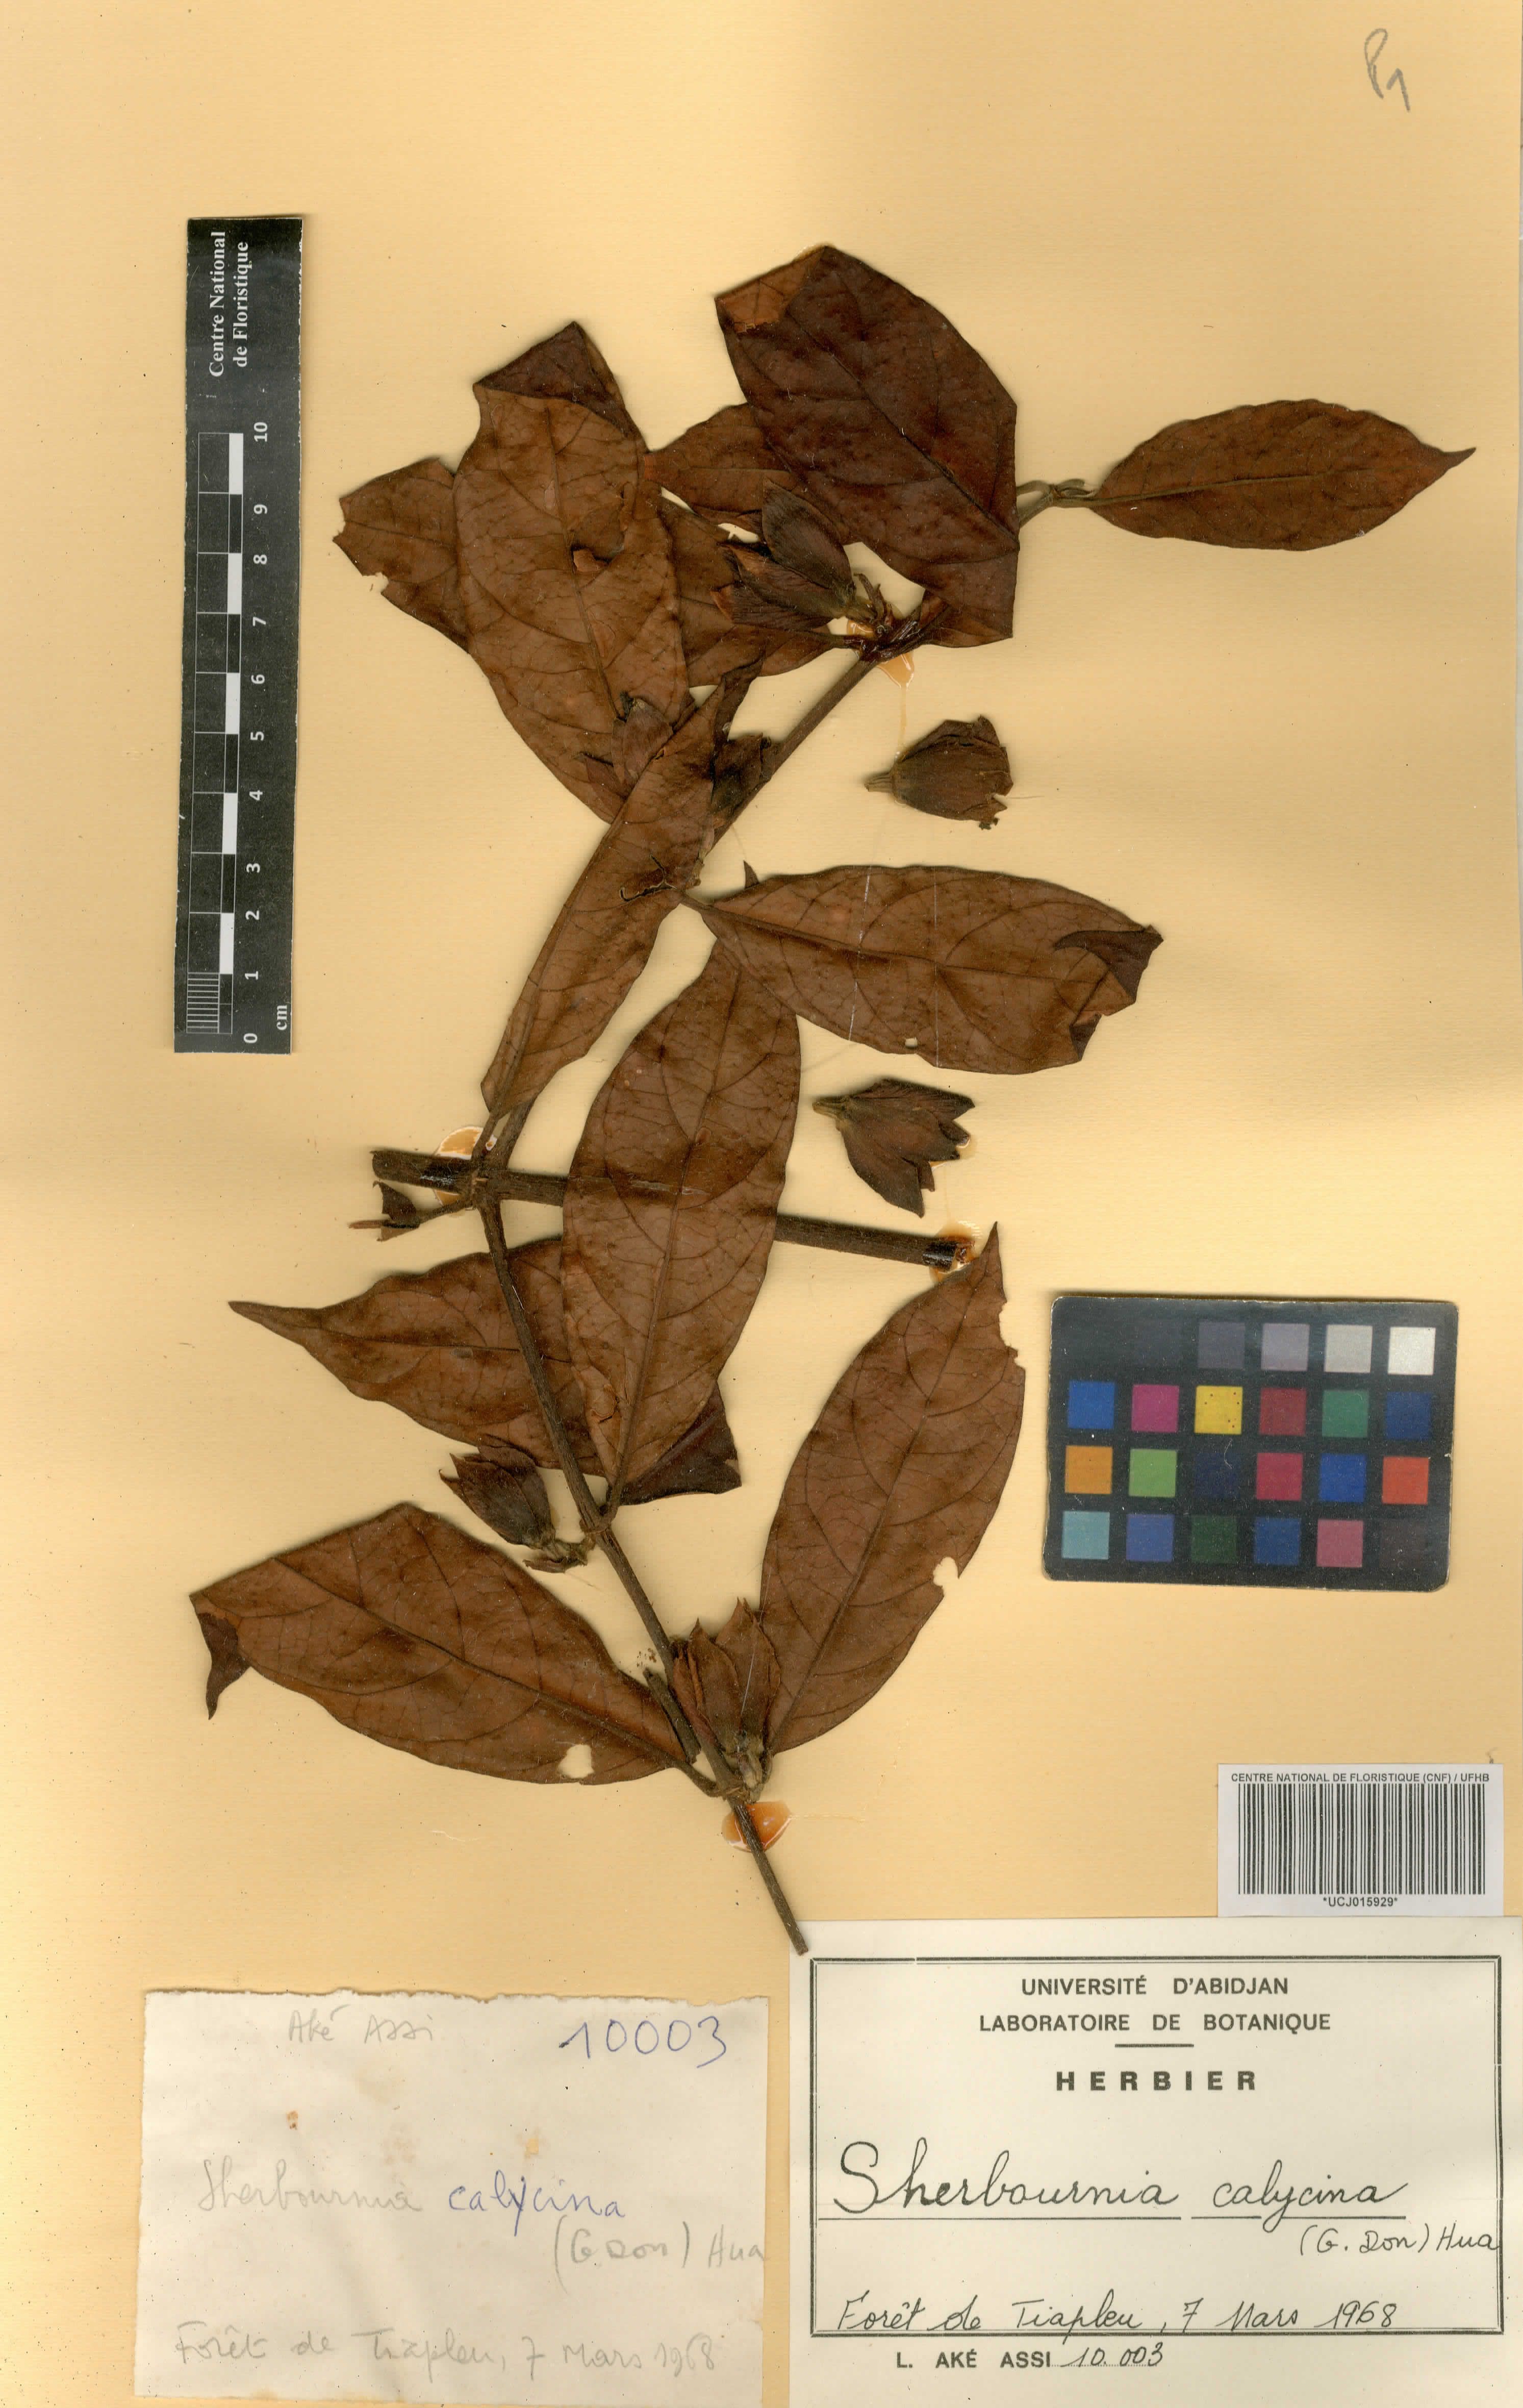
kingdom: Plantae
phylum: Tracheophyta
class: Magnoliopsida
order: Gentianales
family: Rubiaceae
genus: Sherbournia
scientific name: Sherbournia calycina
